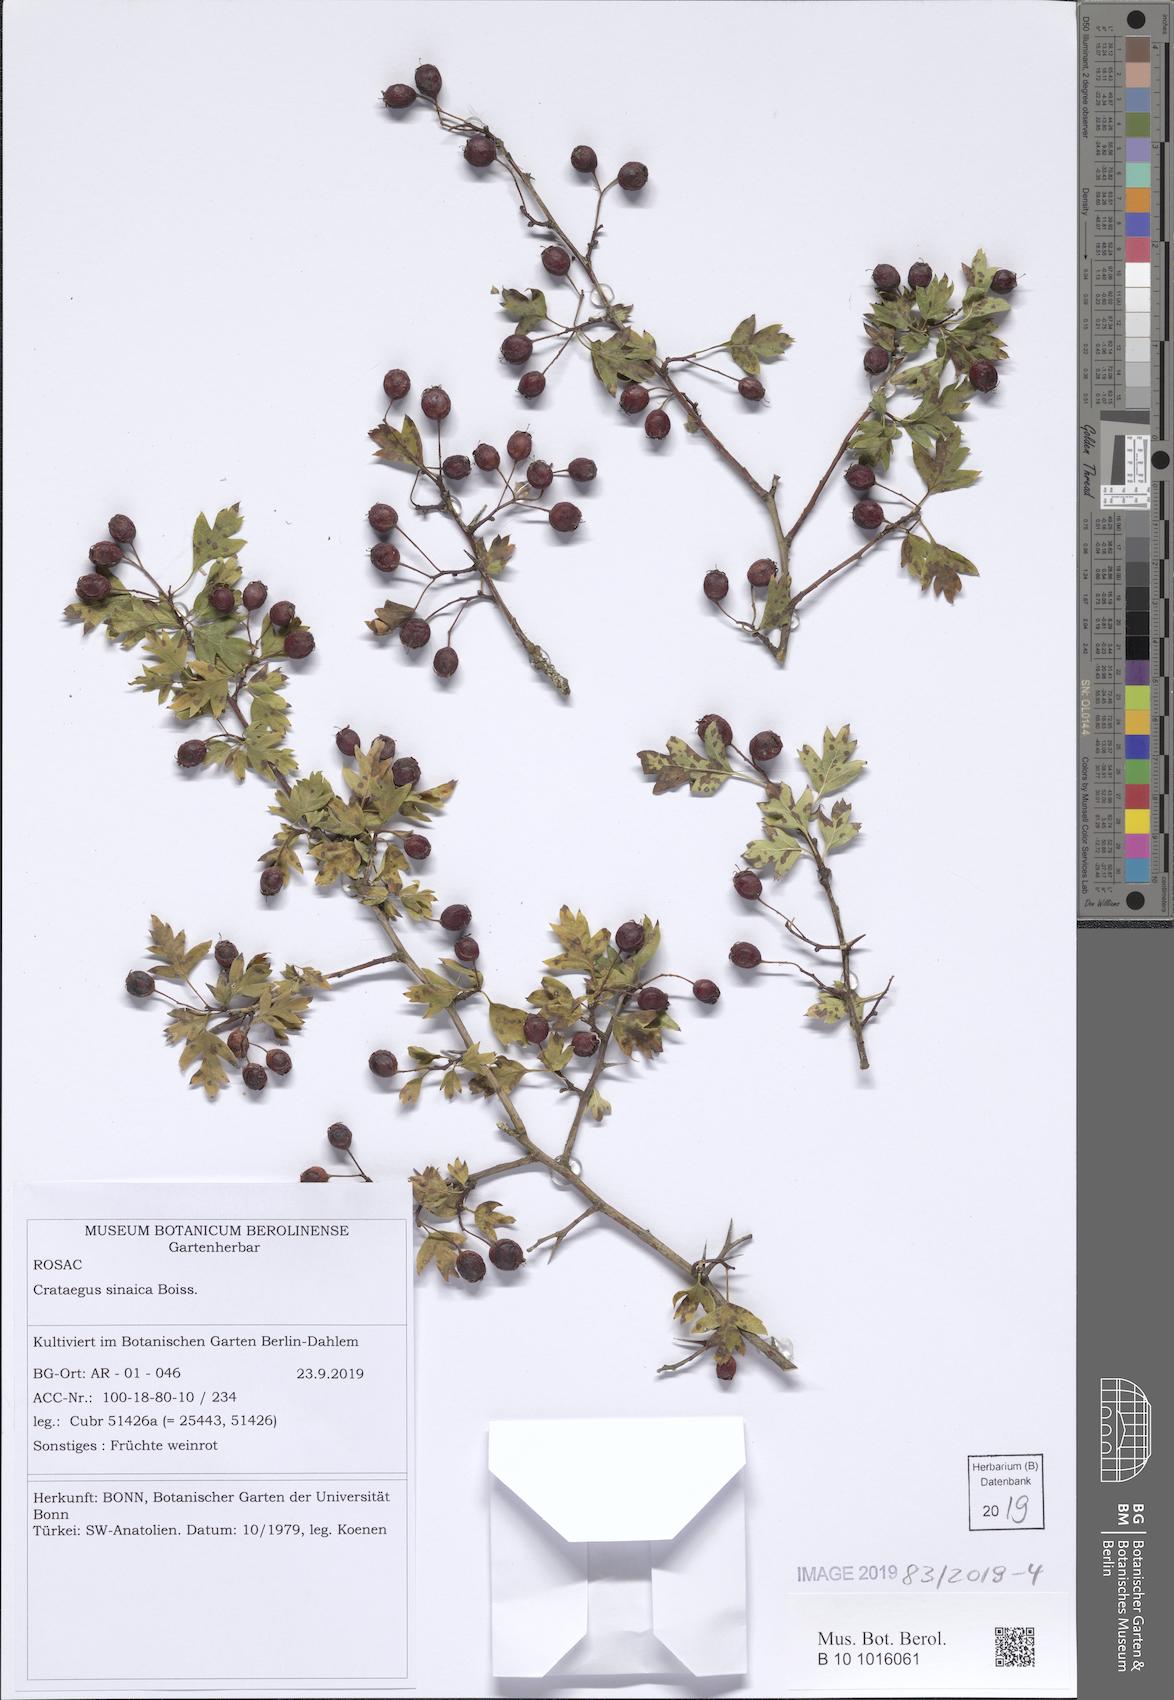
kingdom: Plantae
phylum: Tracheophyta
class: Magnoliopsida
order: Rosales
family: Rosaceae
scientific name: Rosaceae
